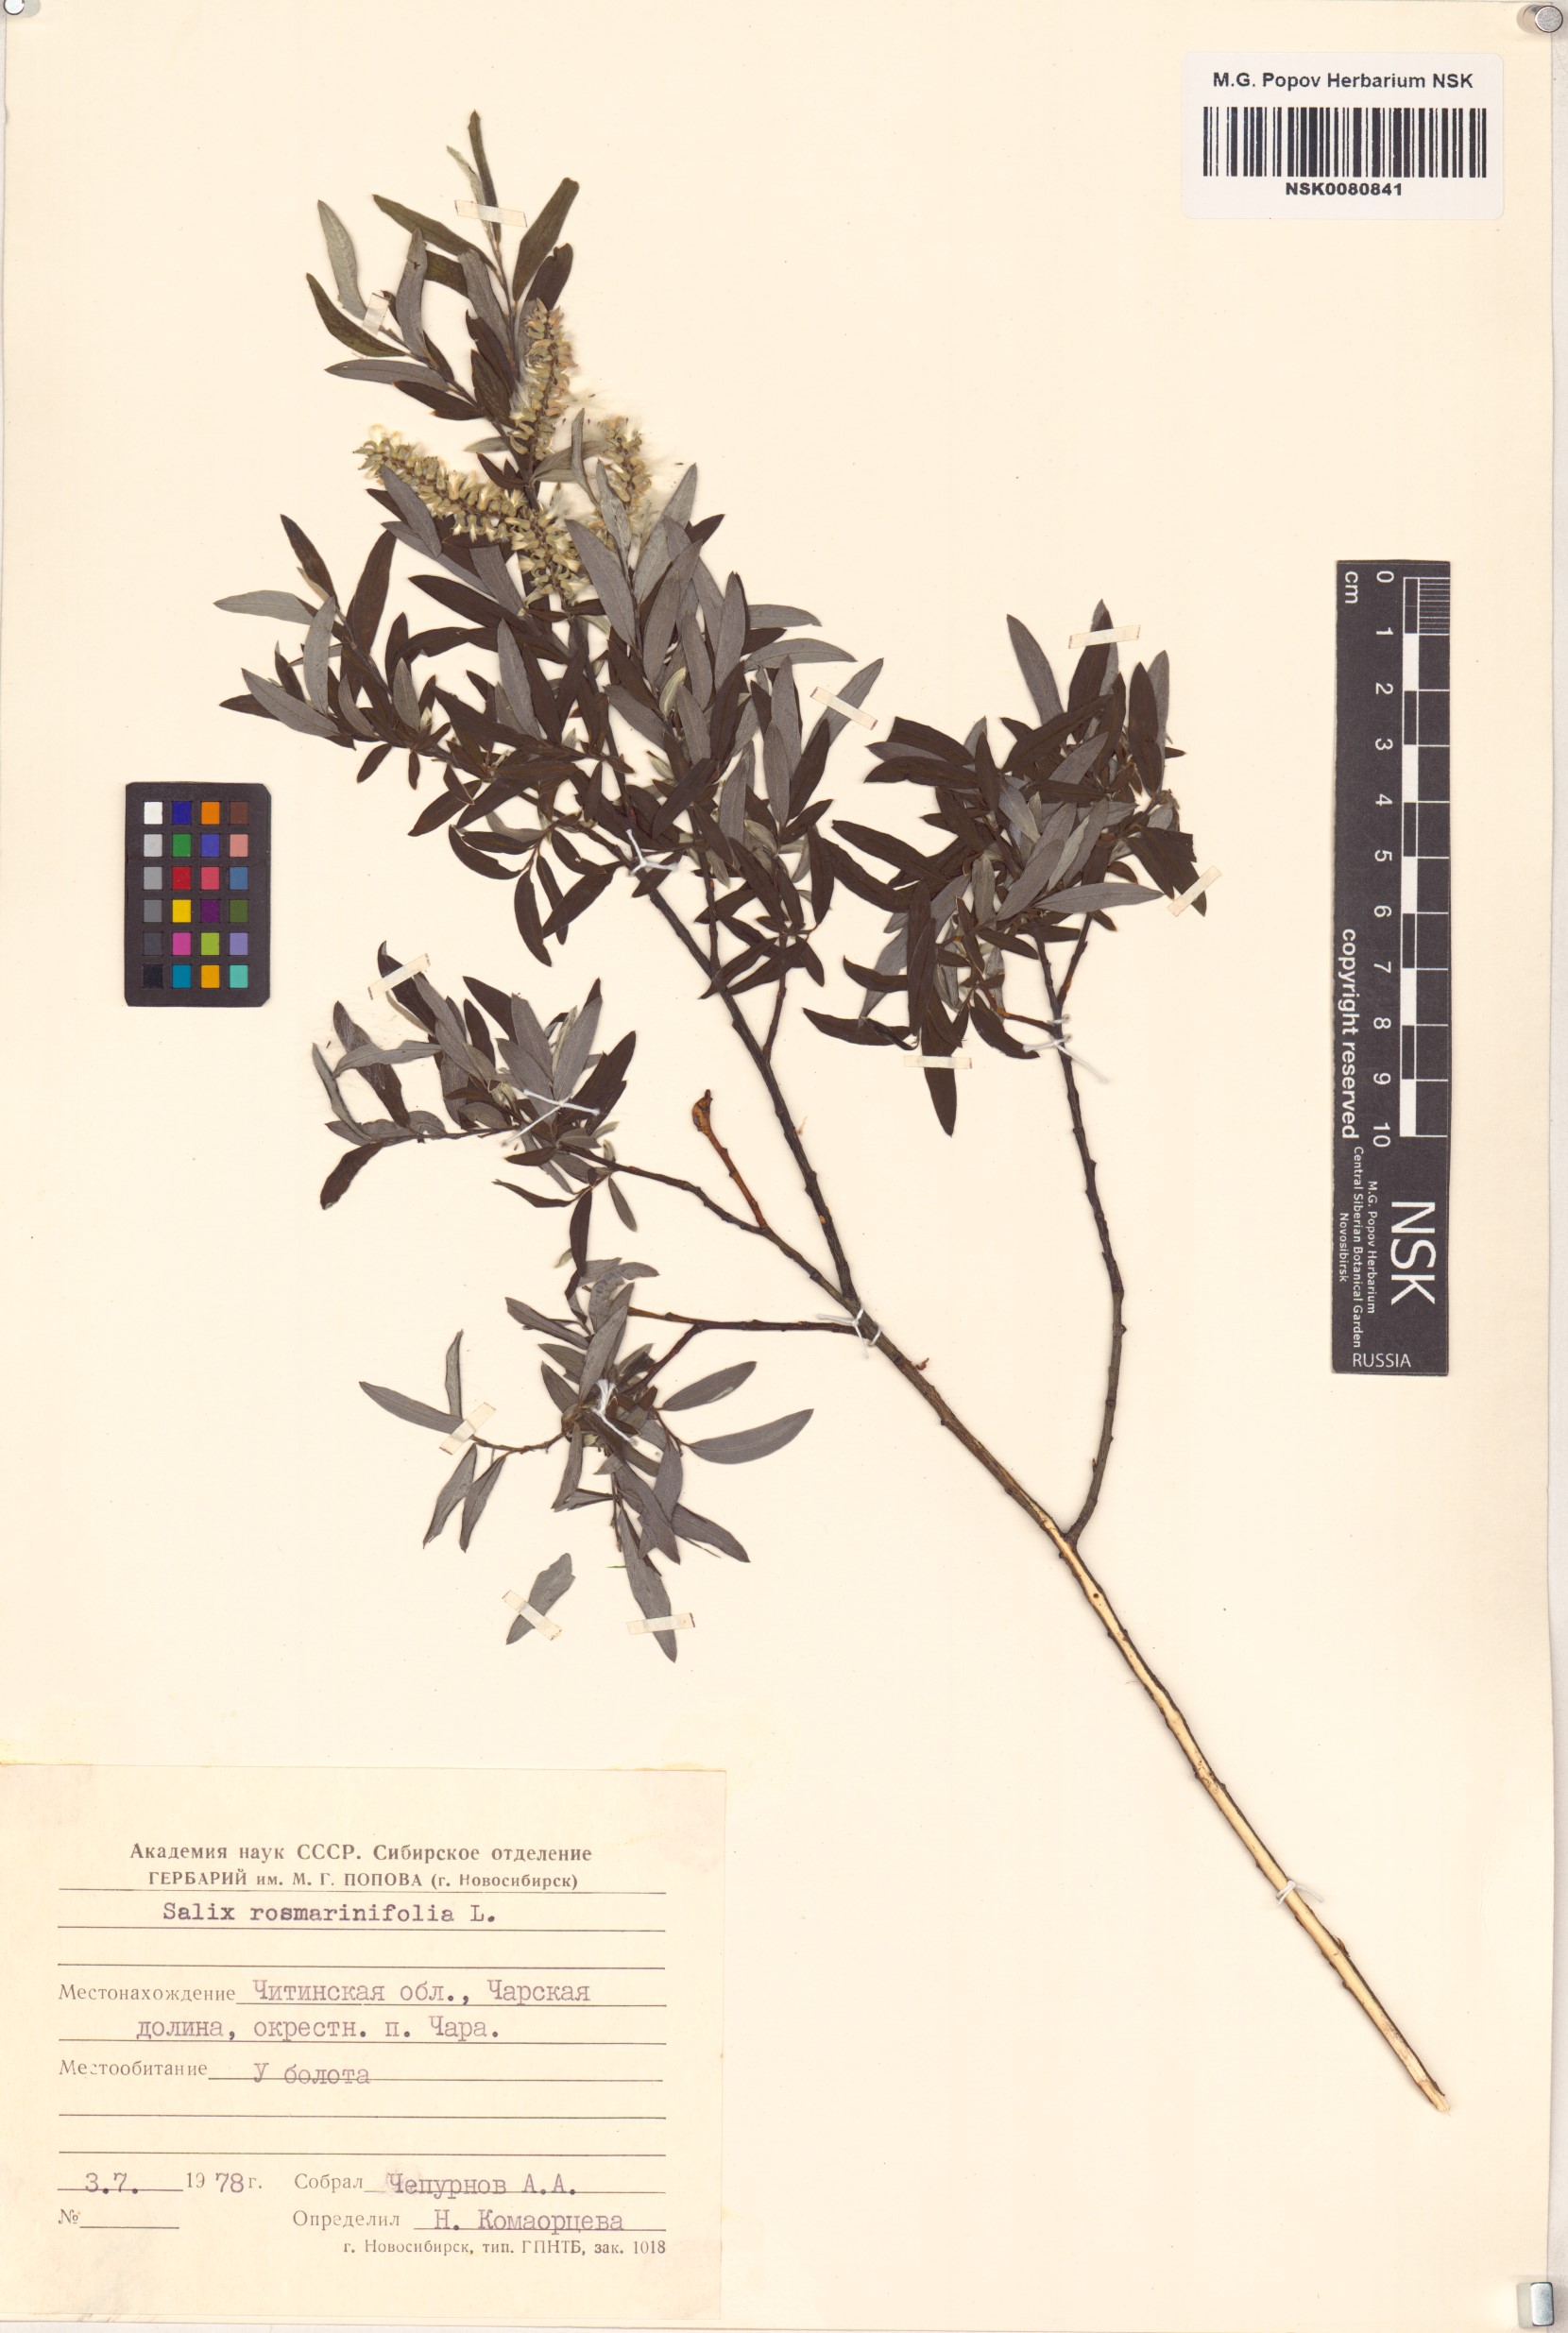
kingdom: Plantae
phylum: Tracheophyta
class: Magnoliopsida
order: Malpighiales
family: Salicaceae
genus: Salix
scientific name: Salix rosmarinifolia
